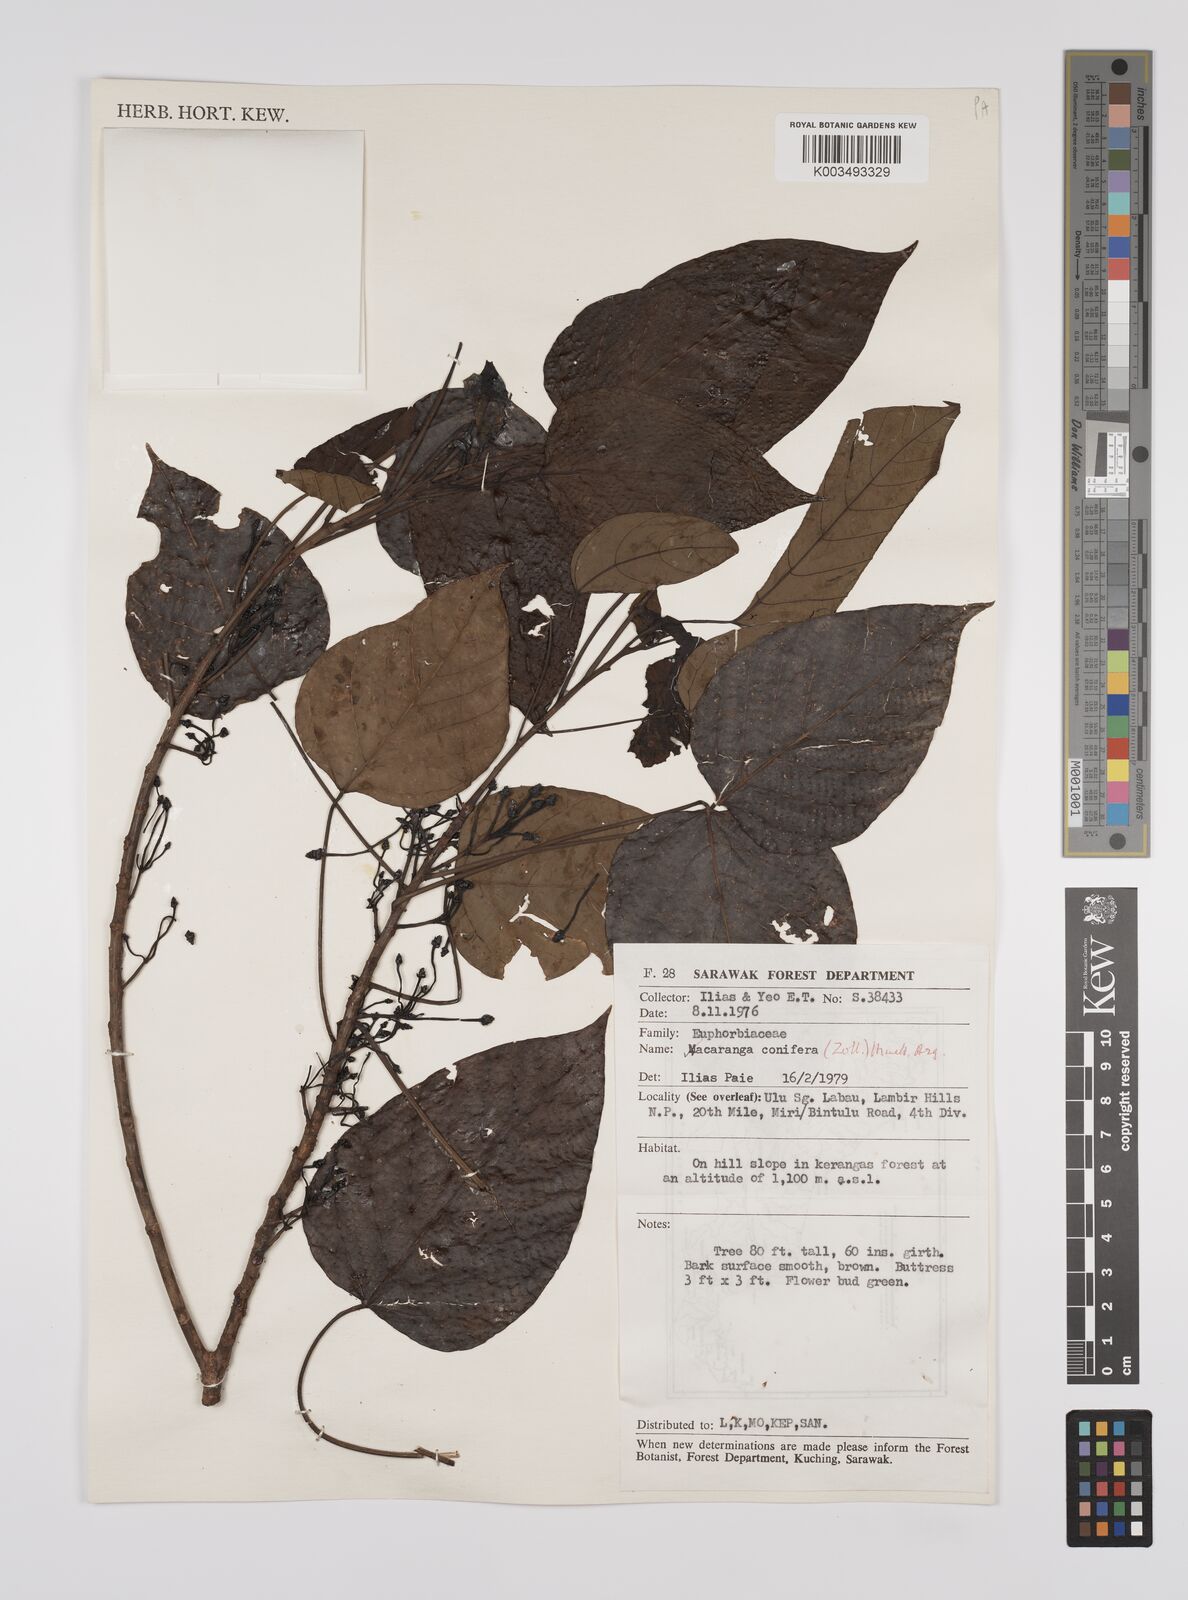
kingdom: Plantae
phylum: Tracheophyta
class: Magnoliopsida
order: Malpighiales
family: Euphorbiaceae
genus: Macaranga
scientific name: Macaranga conifera
